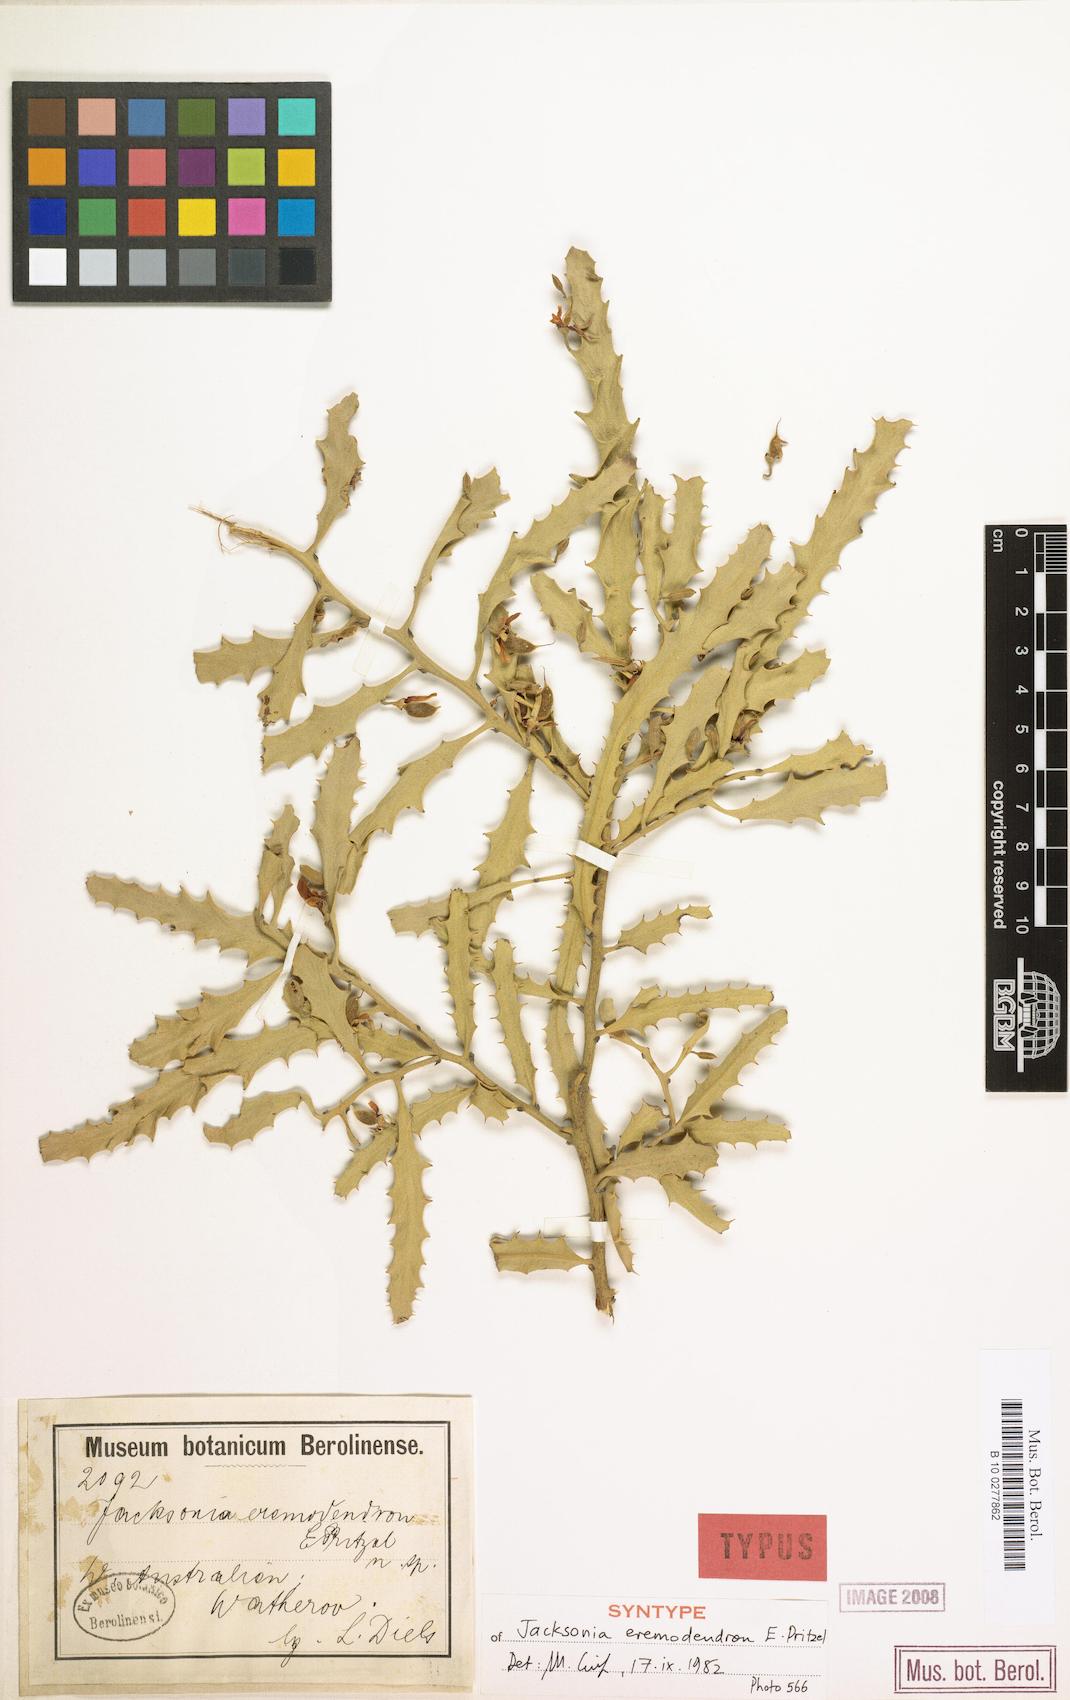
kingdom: Plantae
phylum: Tracheophyta
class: Magnoliopsida
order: Fabales
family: Fabaceae
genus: Jacksonia
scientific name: Jacksonia eremodendron
